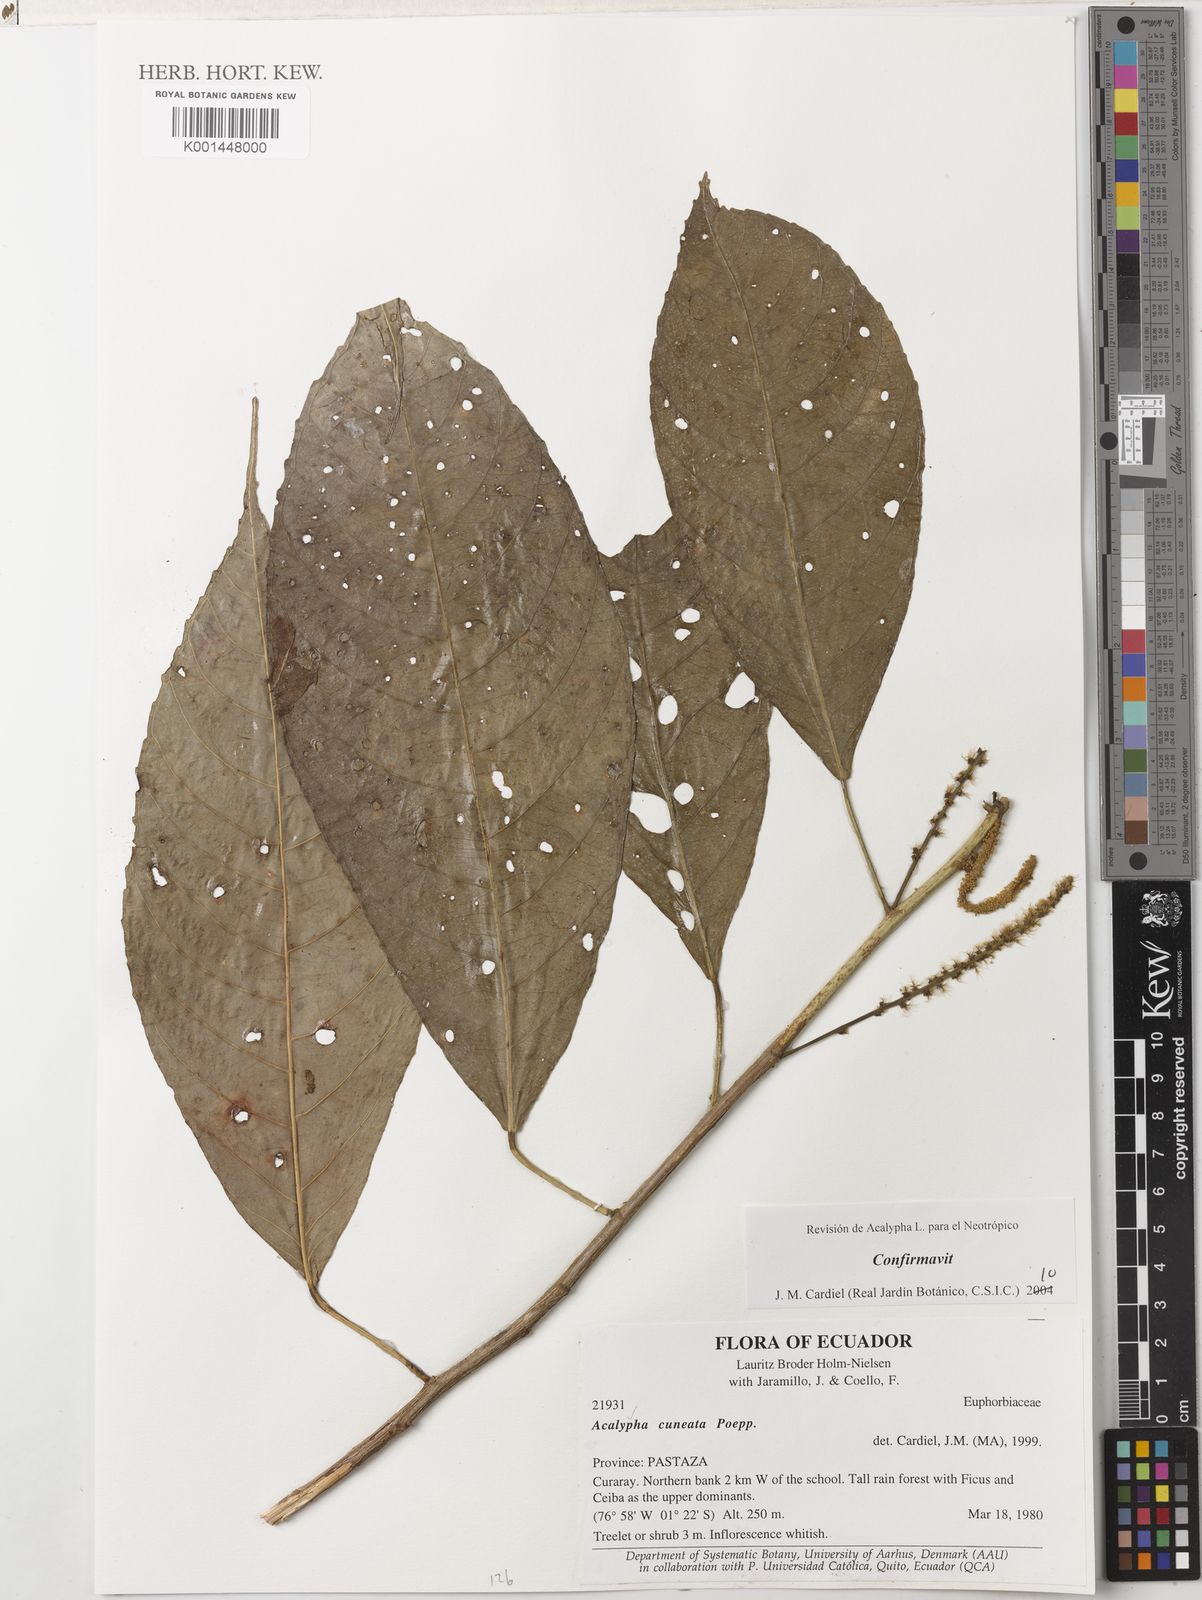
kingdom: Plantae
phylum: Tracheophyta
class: Magnoliopsida
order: Malpighiales
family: Euphorbiaceae
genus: Acalypha
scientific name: Acalypha cuneata
